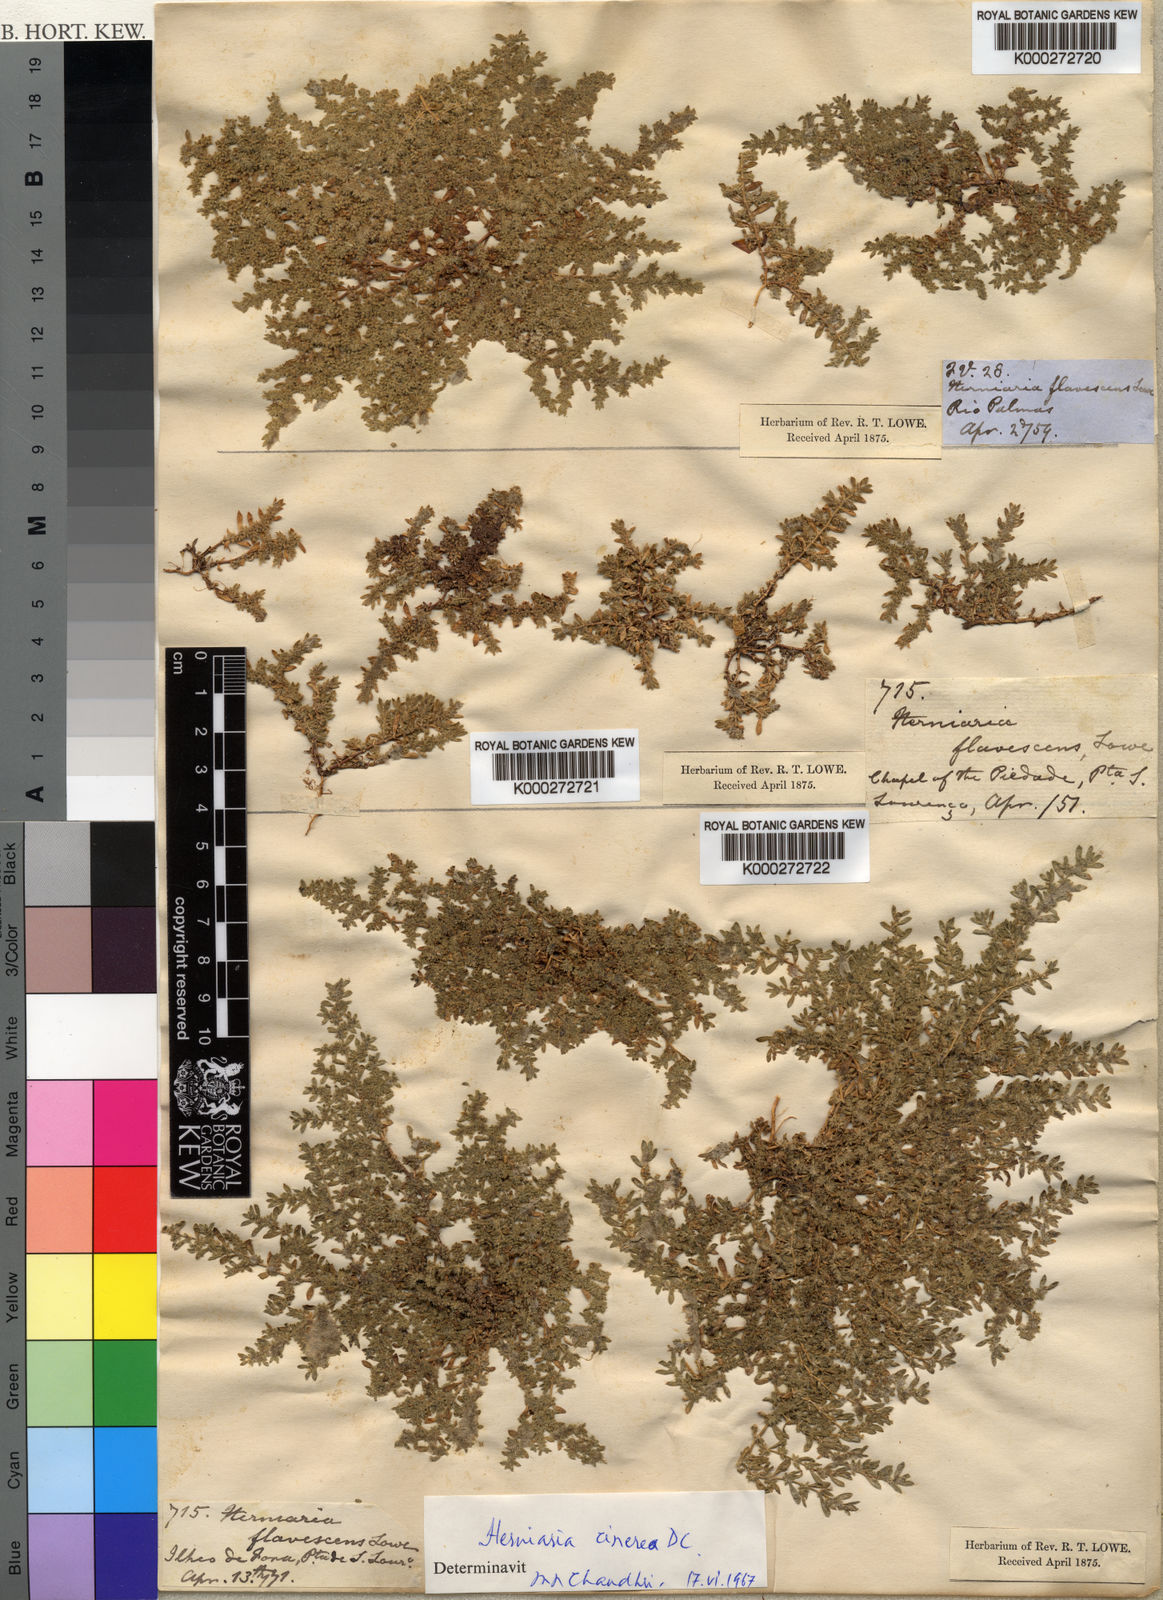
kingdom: Plantae
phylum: Tracheophyta
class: Magnoliopsida
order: Caryophyllales
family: Caryophyllaceae
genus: Herniaria
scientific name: Herniaria cinerea
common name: Hairy rupturewort
